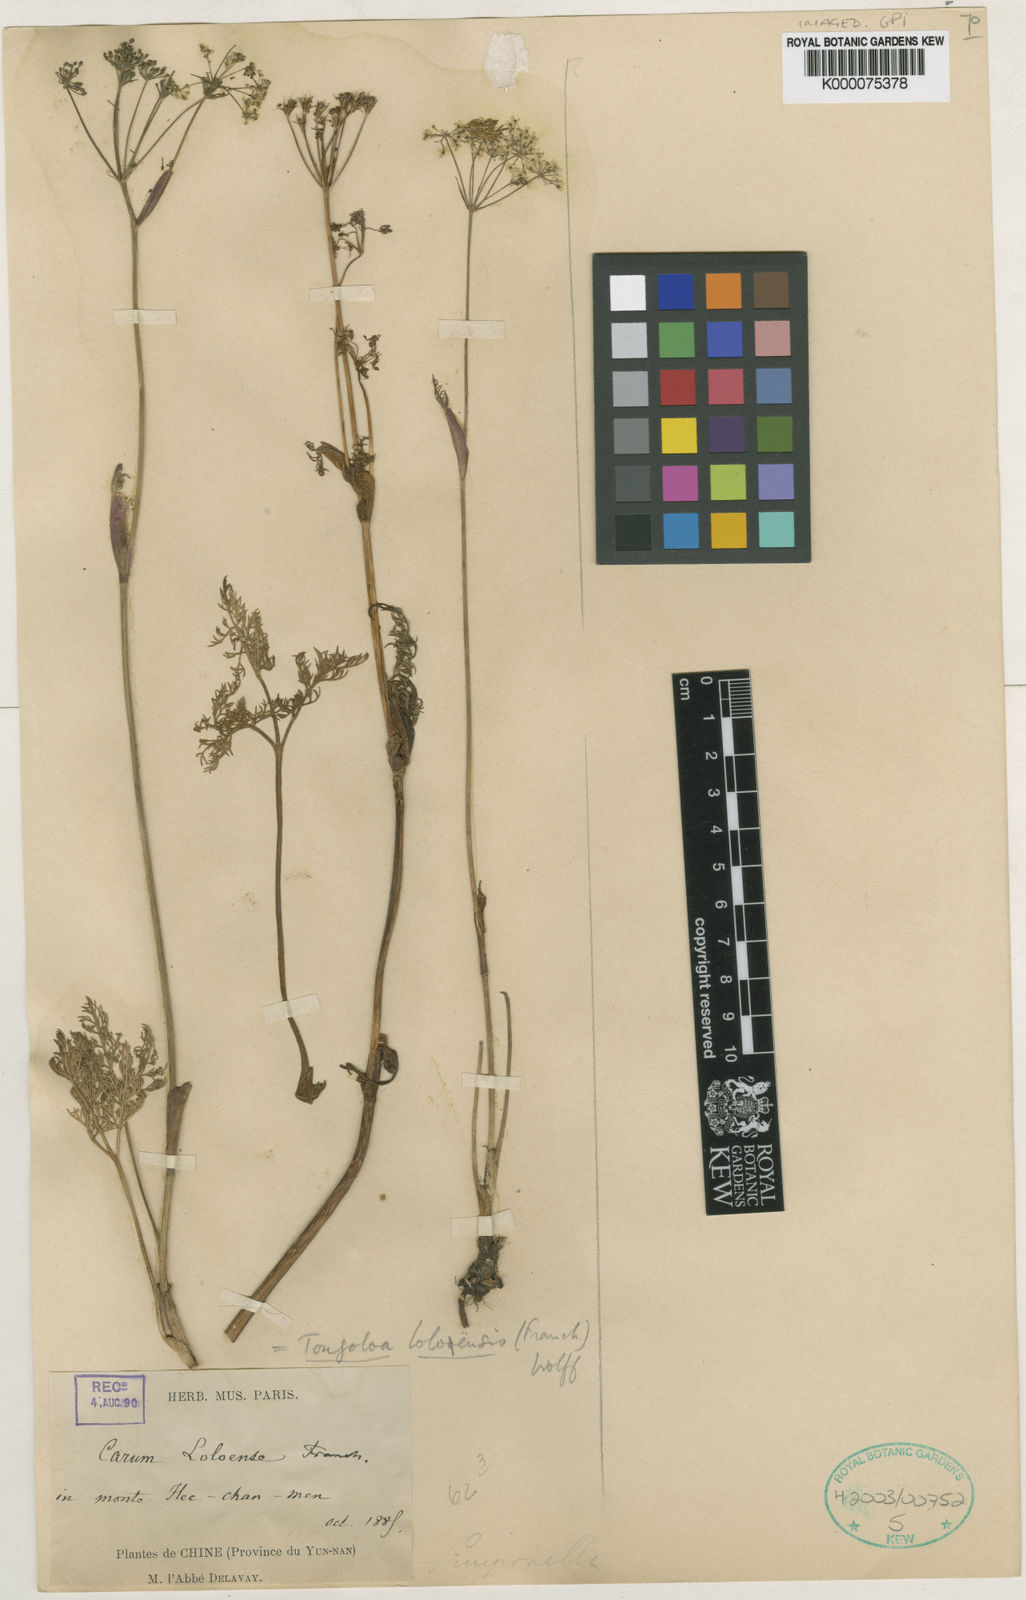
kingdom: Plantae
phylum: Tracheophyta
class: Magnoliopsida
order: Apiales
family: Apiaceae
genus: Tongoloa
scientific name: Tongoloa loloensis
